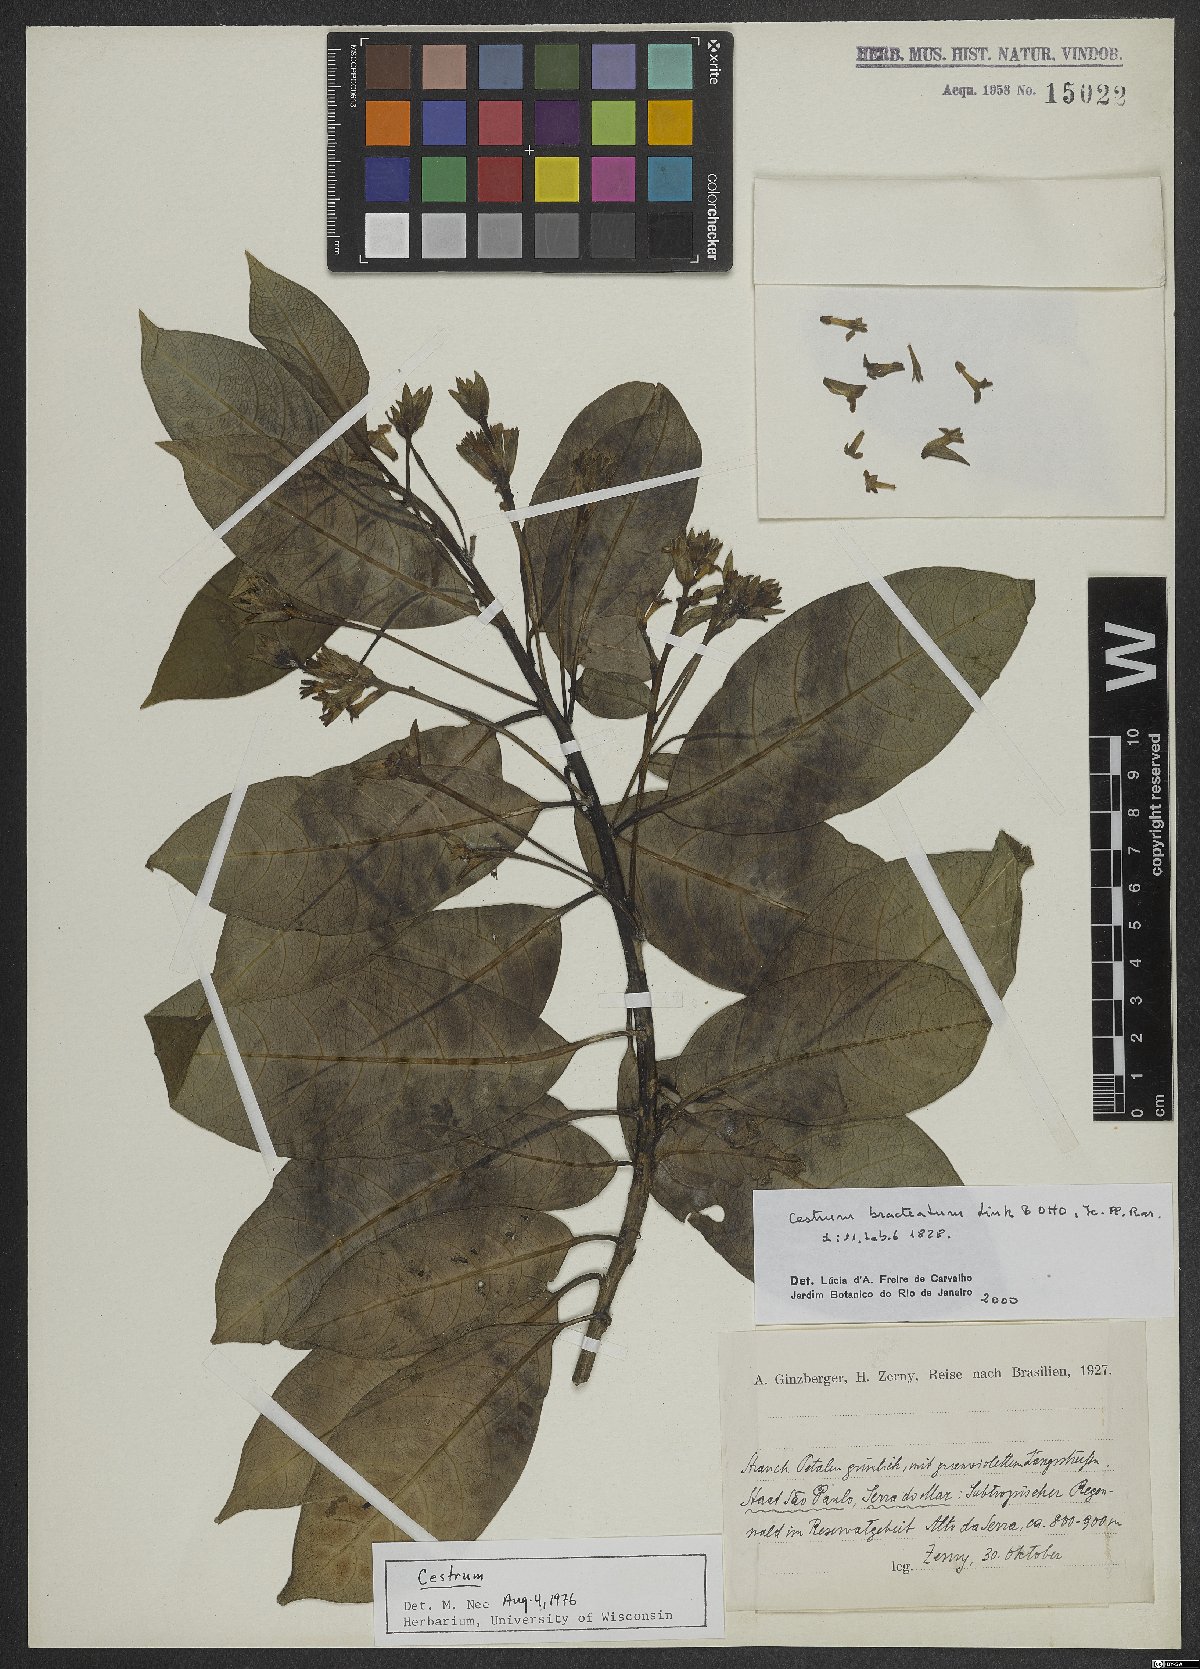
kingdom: Plantae
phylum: Tracheophyta
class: Magnoliopsida
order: Solanales
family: Solanaceae
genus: Cestrum
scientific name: Cestrum bracteatum
